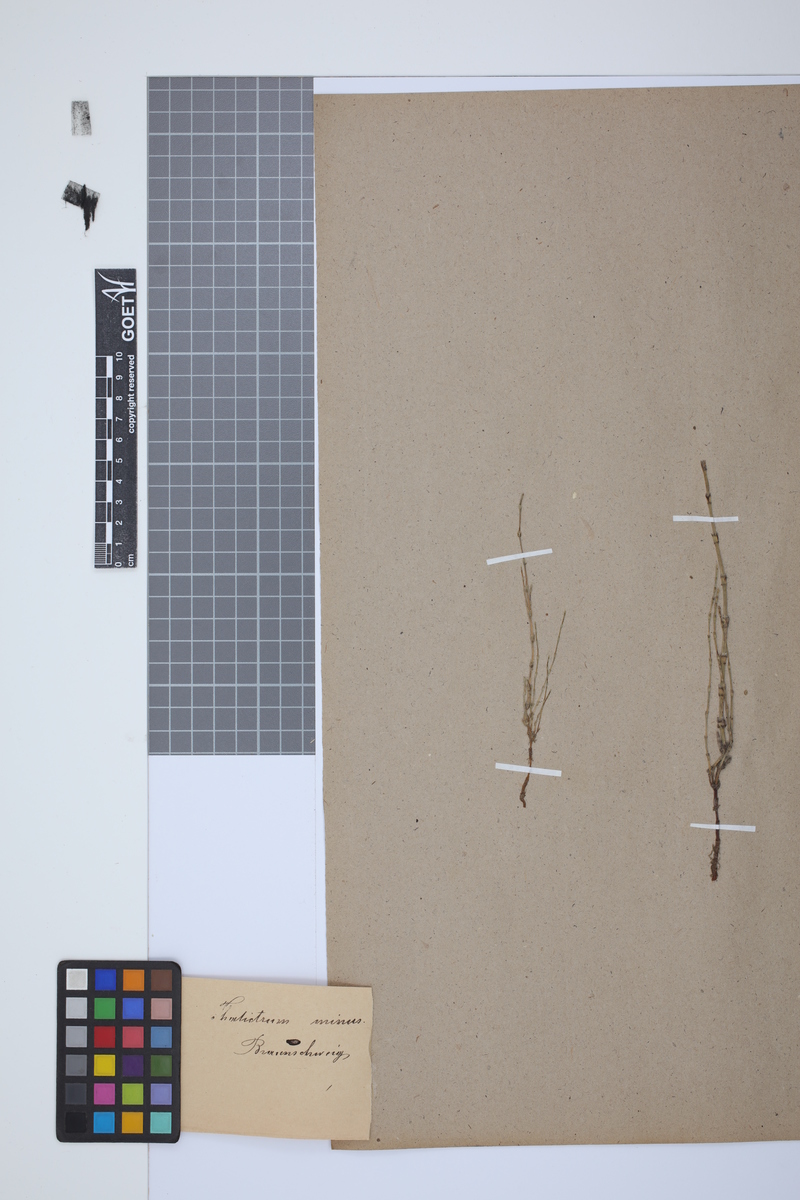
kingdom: Plantae
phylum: Tracheophyta
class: Polypodiopsida
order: Equisetales
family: Equisetaceae
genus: Equisetum
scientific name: Equisetum arvense
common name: Field horsetail
